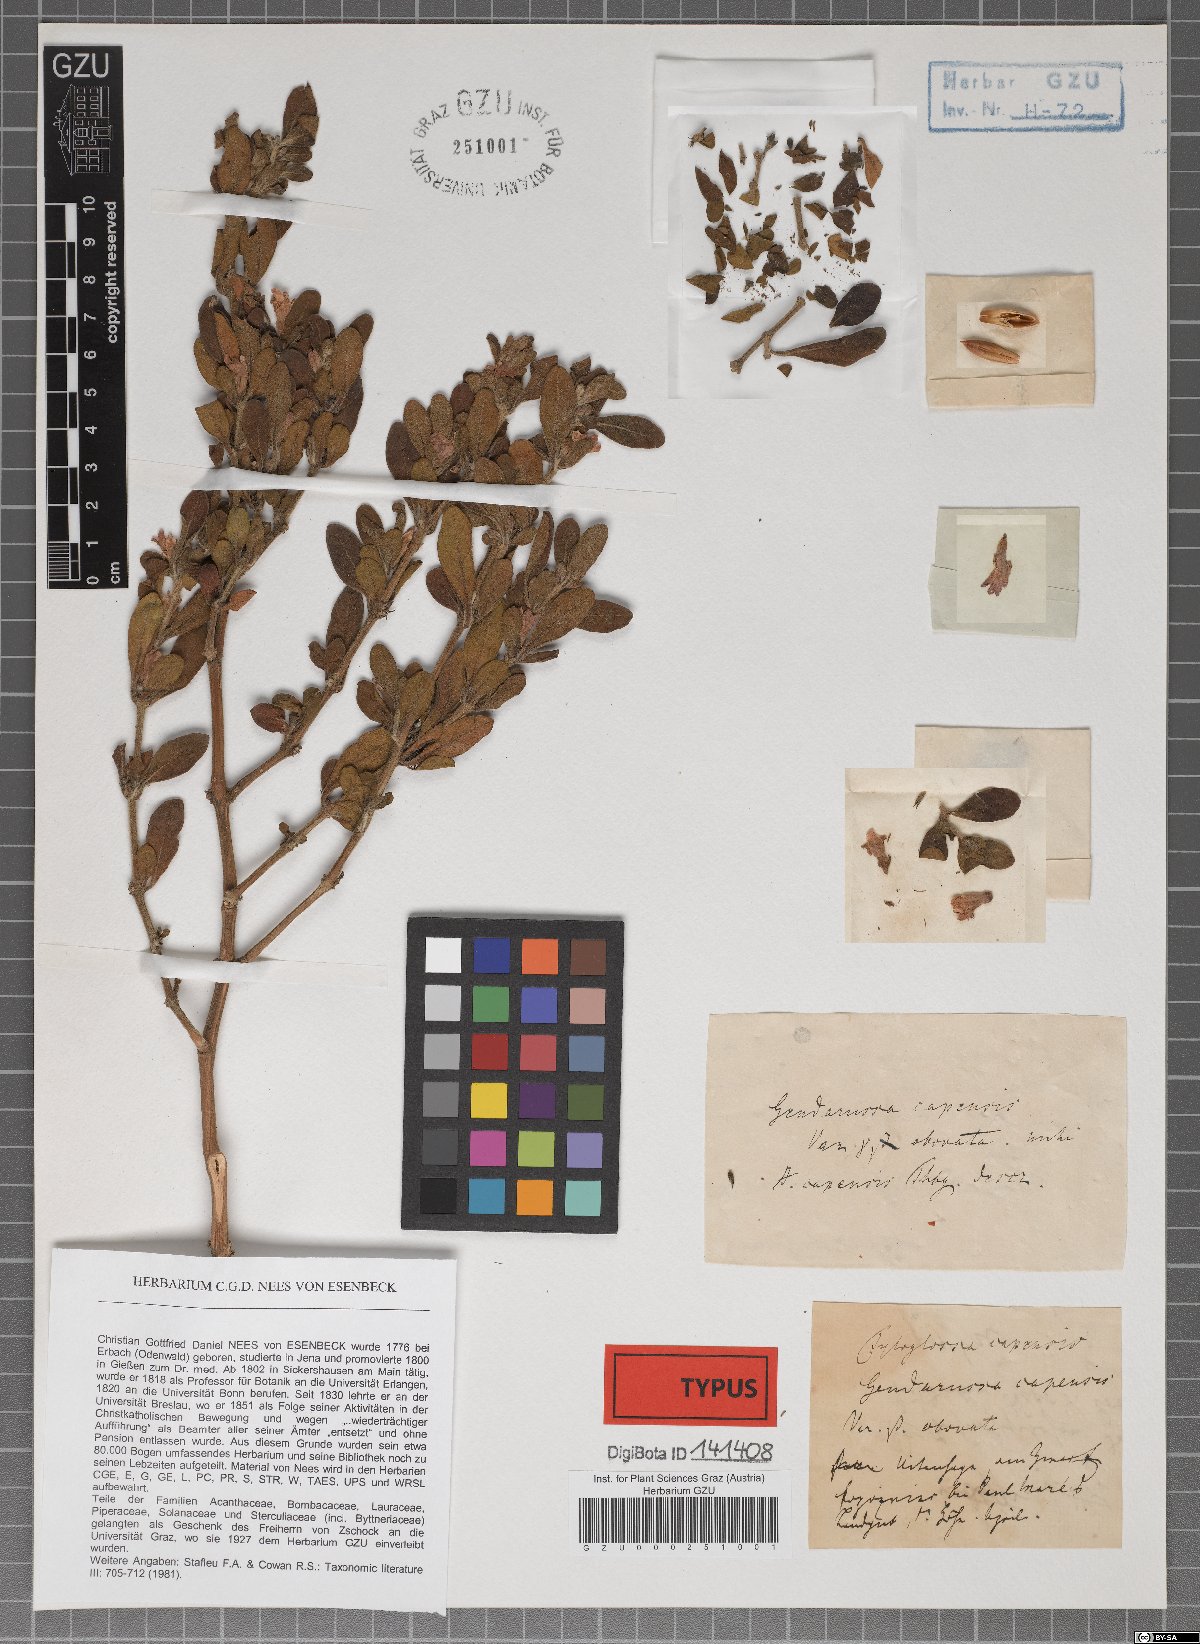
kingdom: Plantae
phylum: Tracheophyta
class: Magnoliopsida
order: Lamiales
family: Acanthaceae
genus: Justicia
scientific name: Justicia capensis
